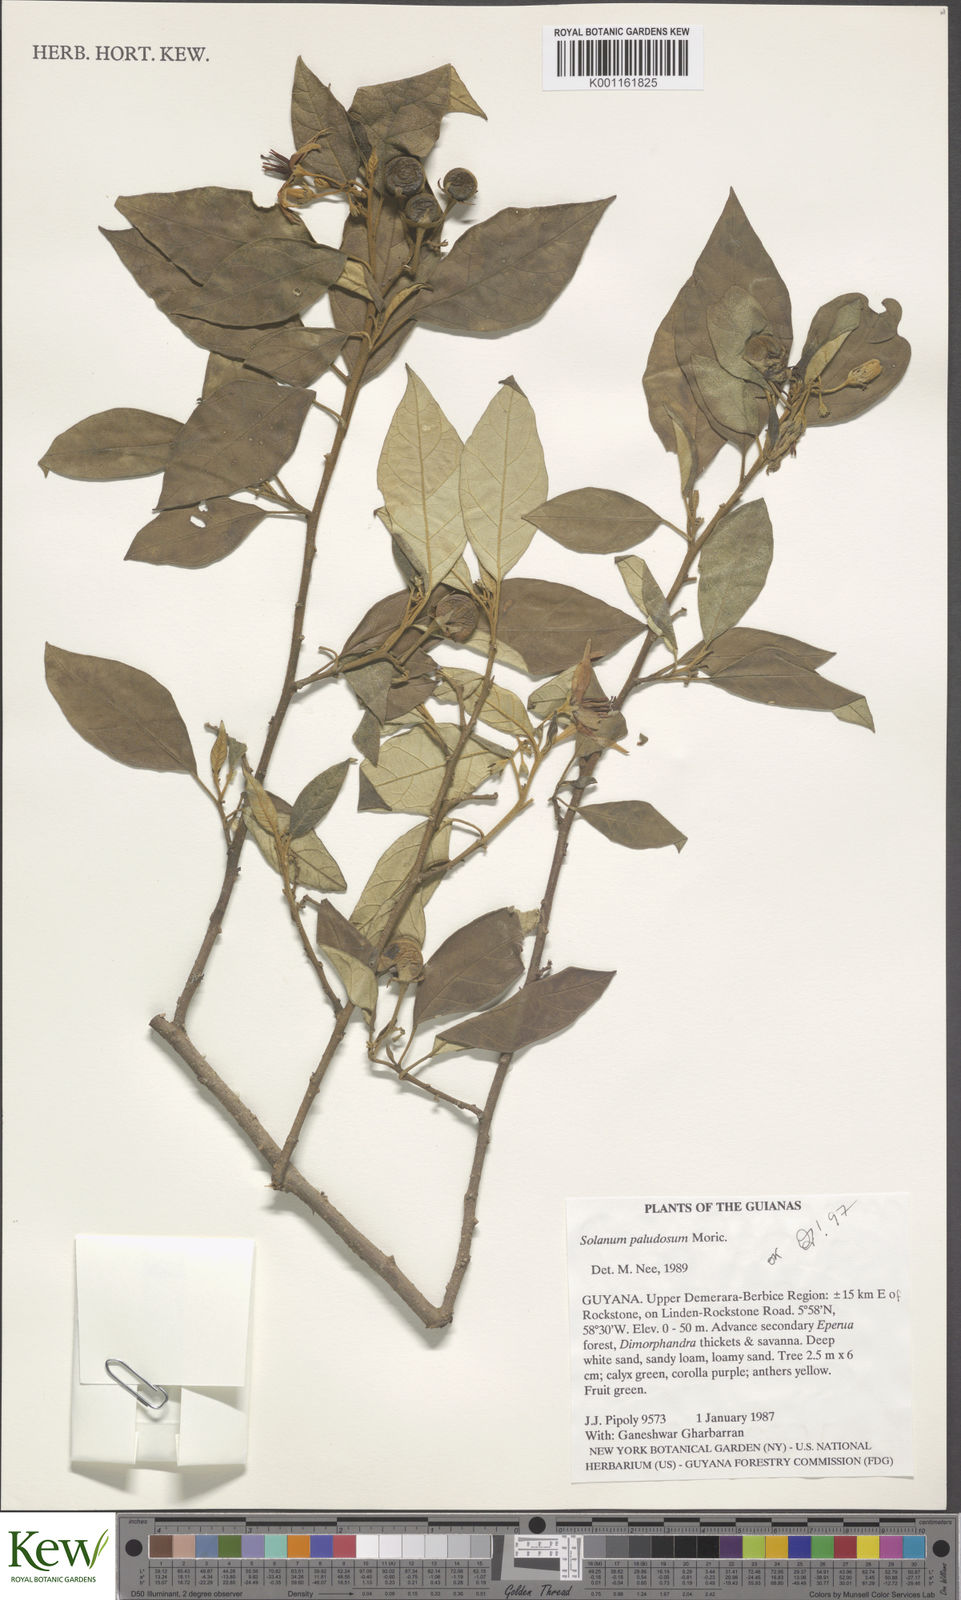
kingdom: Plantae
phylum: Tracheophyta
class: Magnoliopsida
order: Solanales
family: Solanaceae
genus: Solanum
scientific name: Solanum paludosum
